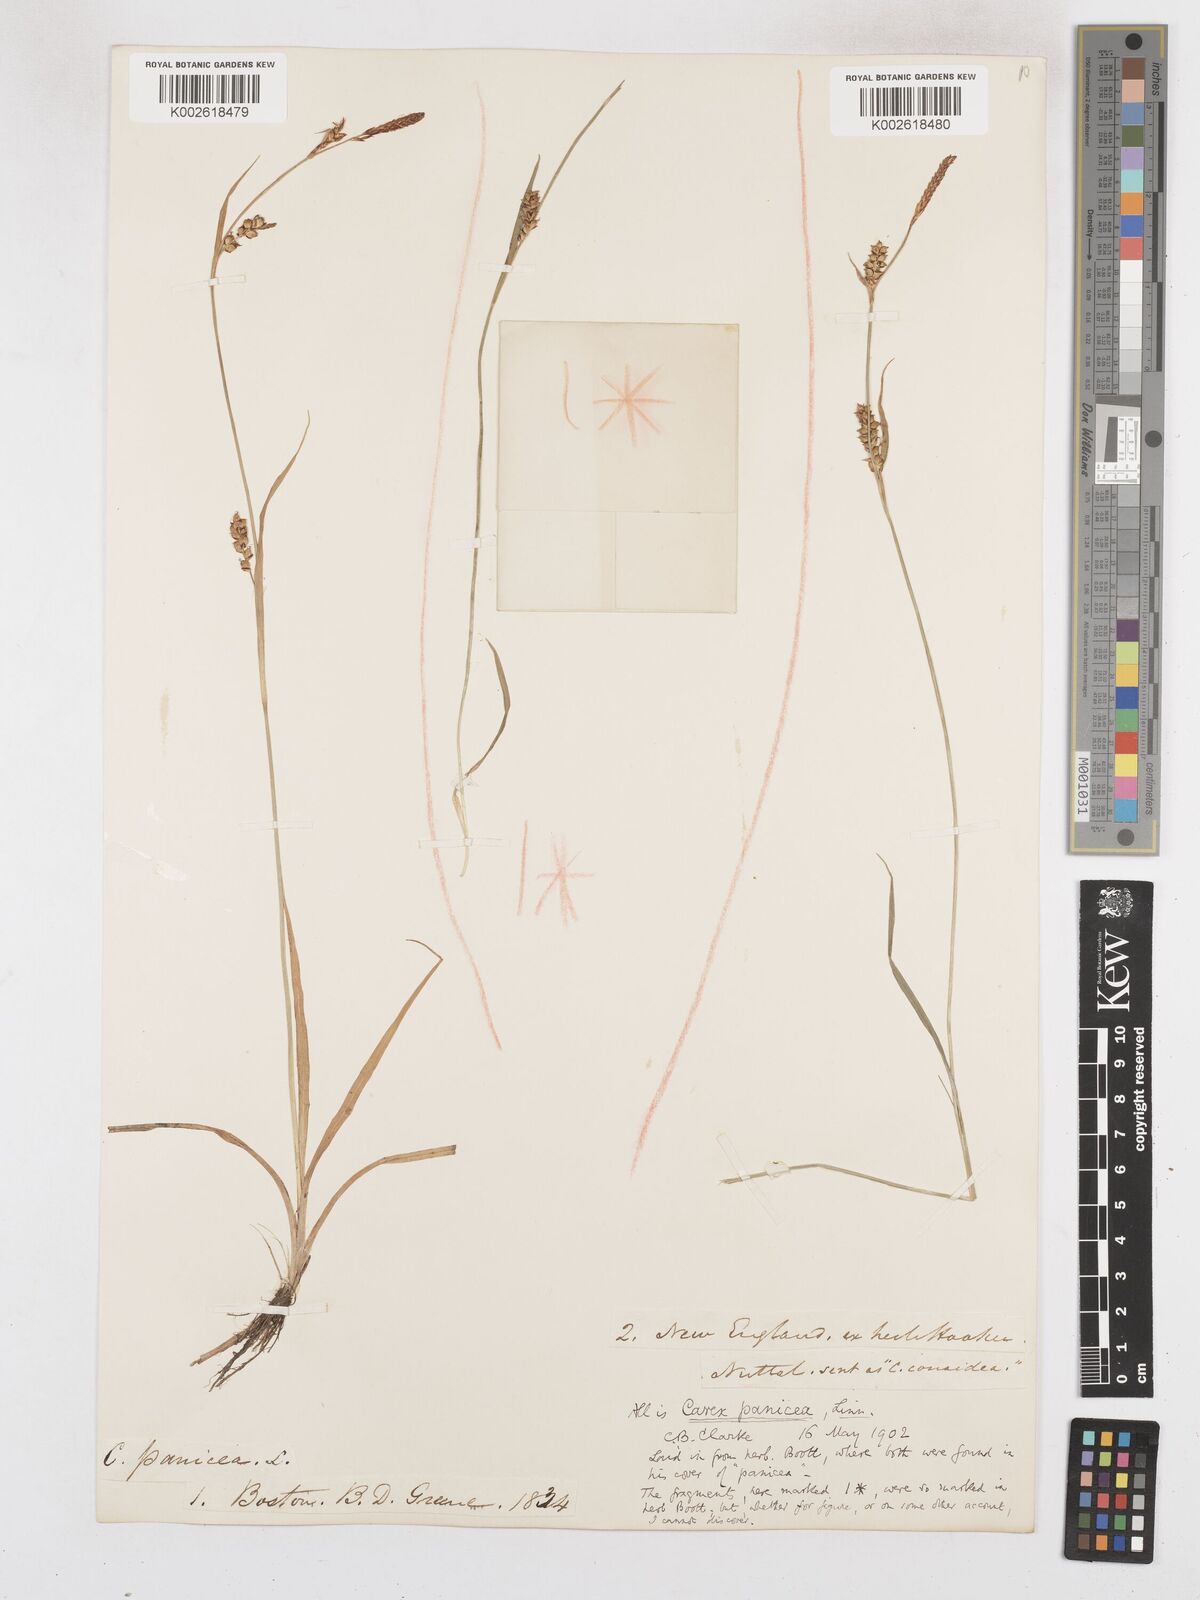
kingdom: Plantae
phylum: Tracheophyta
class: Liliopsida
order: Poales
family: Cyperaceae
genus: Carex
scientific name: Carex panicea
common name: Carnation sedge
